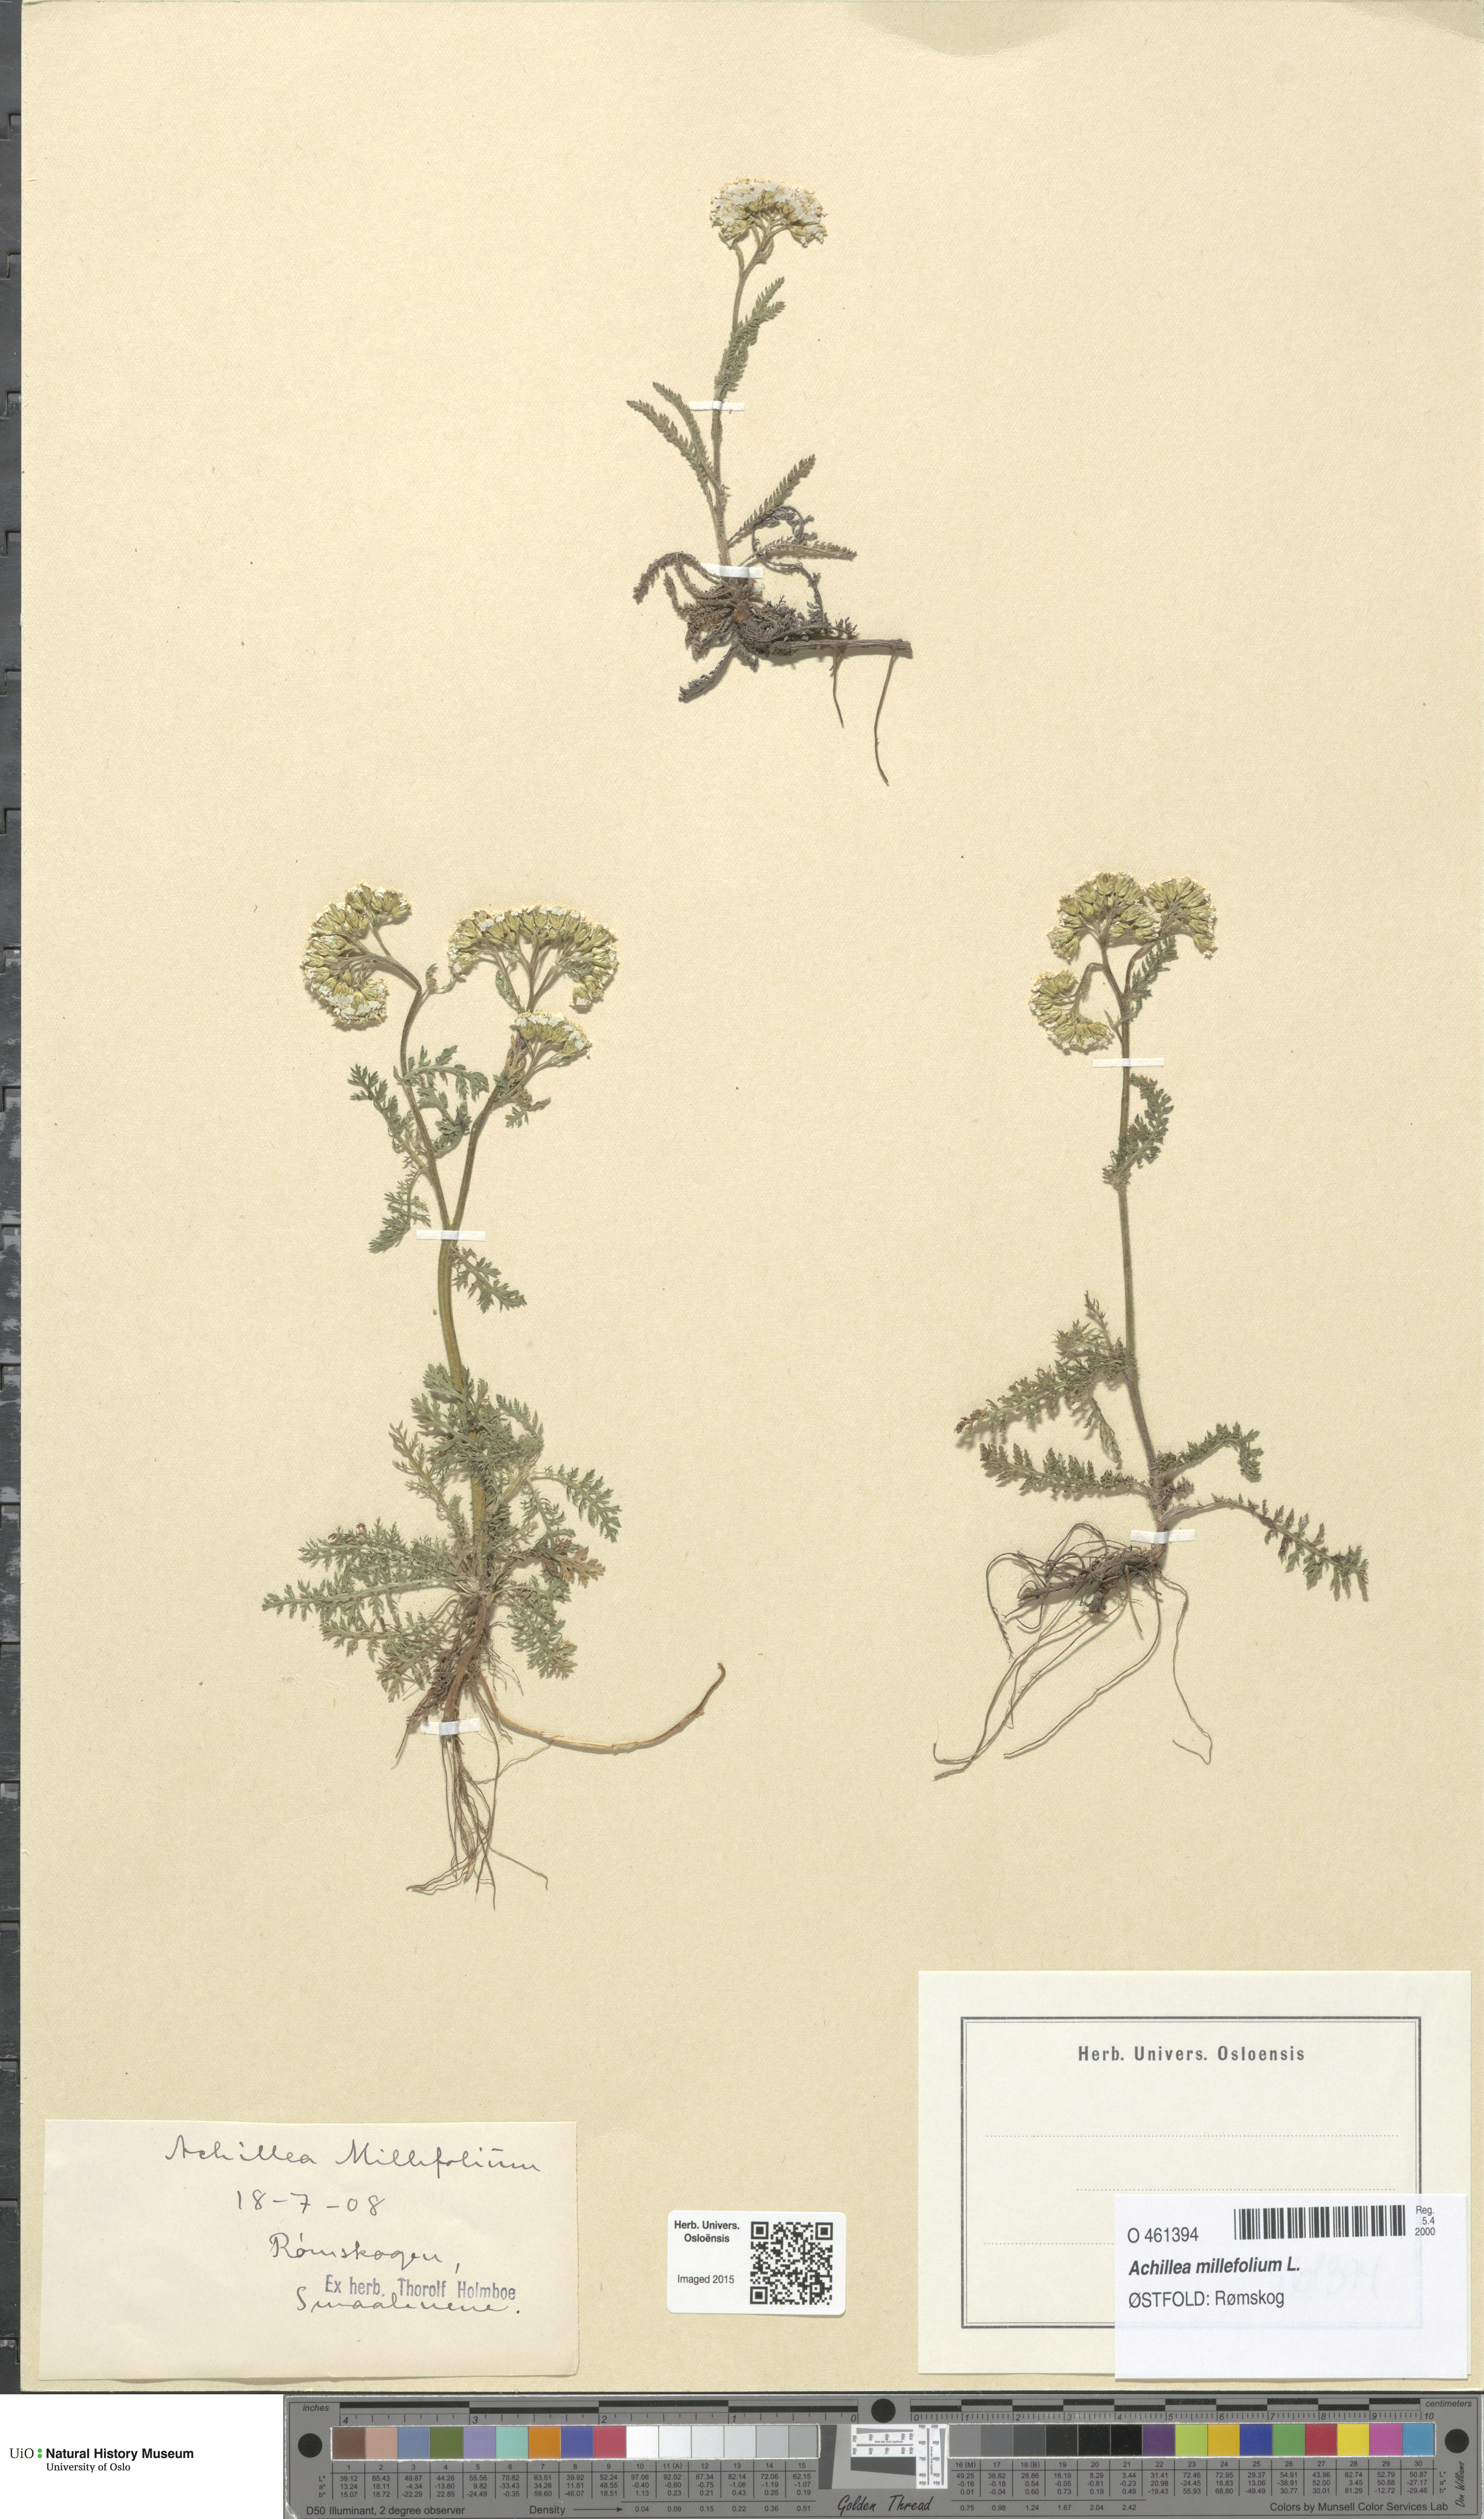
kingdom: Plantae
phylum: Tracheophyta
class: Magnoliopsida
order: Asterales
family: Asteraceae
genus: Achillea
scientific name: Achillea millefolium
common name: Yarrow
